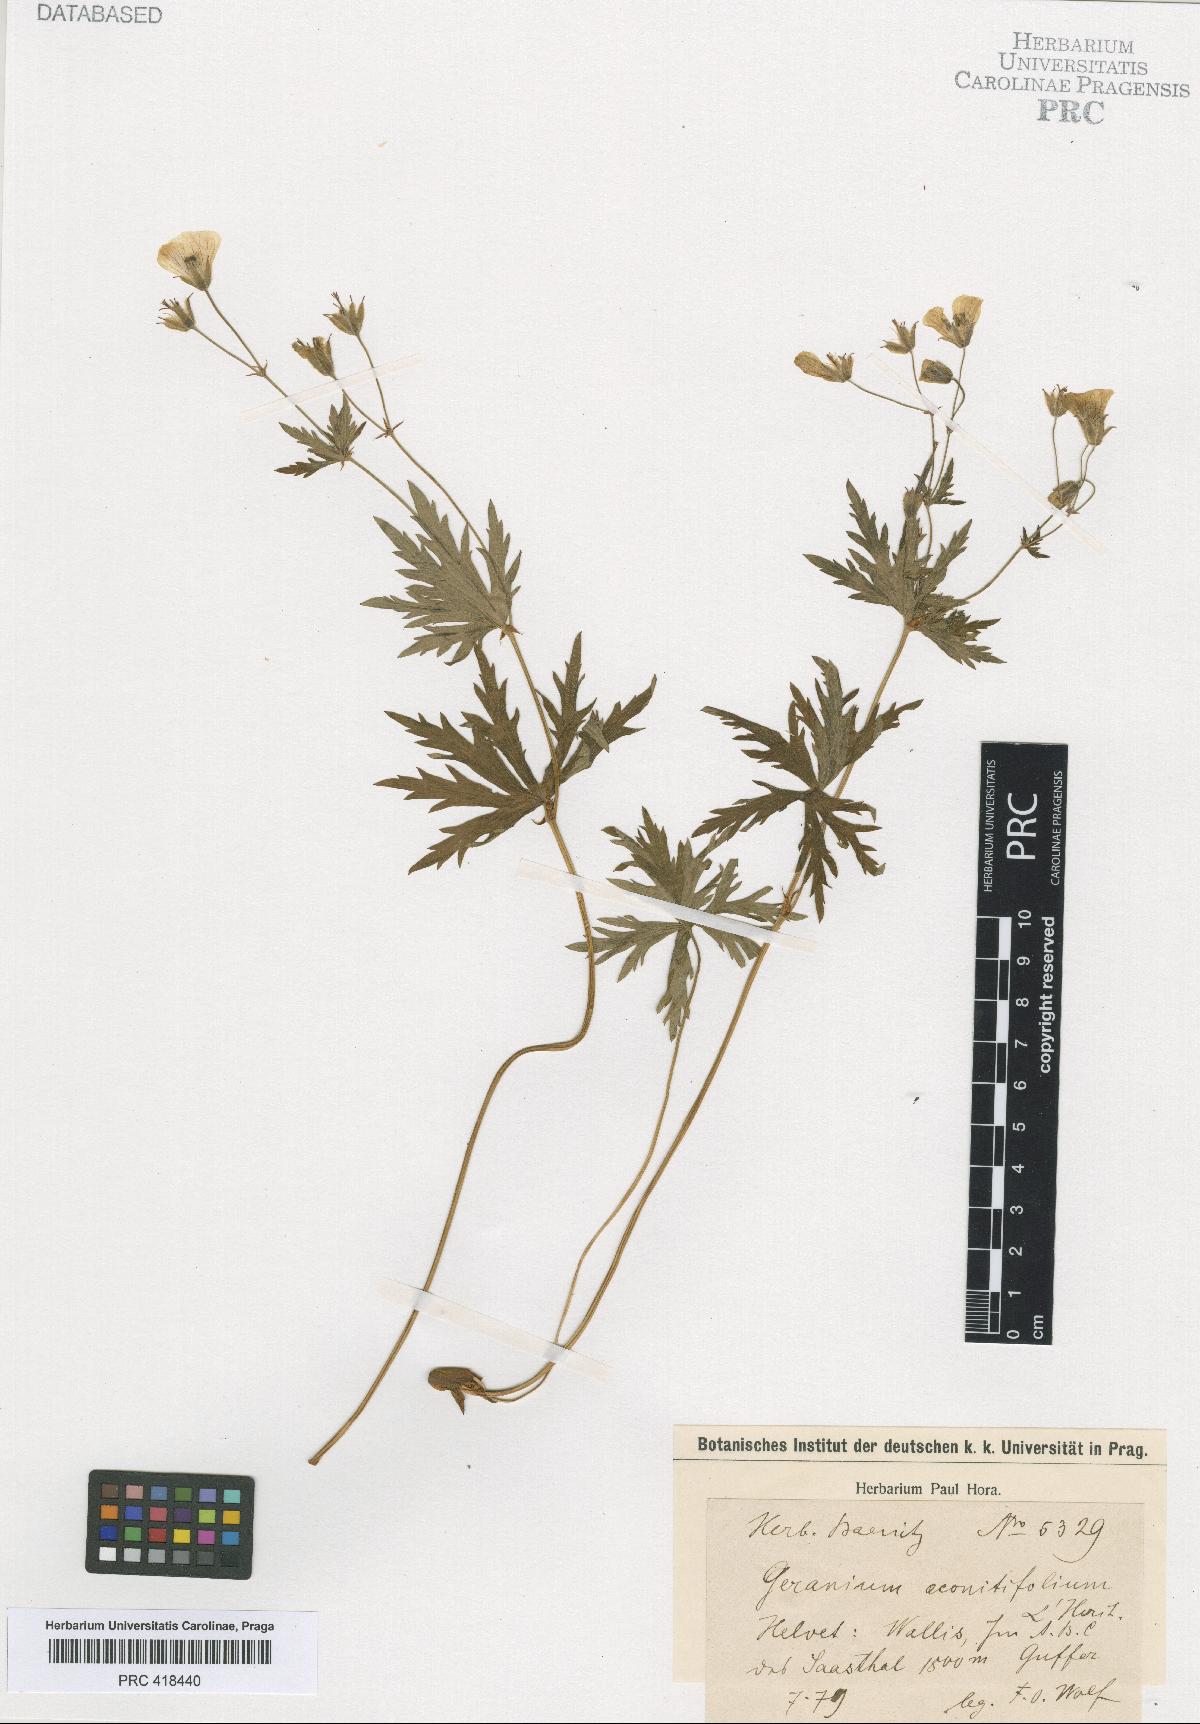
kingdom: Plantae
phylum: Tracheophyta
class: Magnoliopsida
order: Geraniales
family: Geraniaceae
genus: Geranium
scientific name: Geranium rivulare
